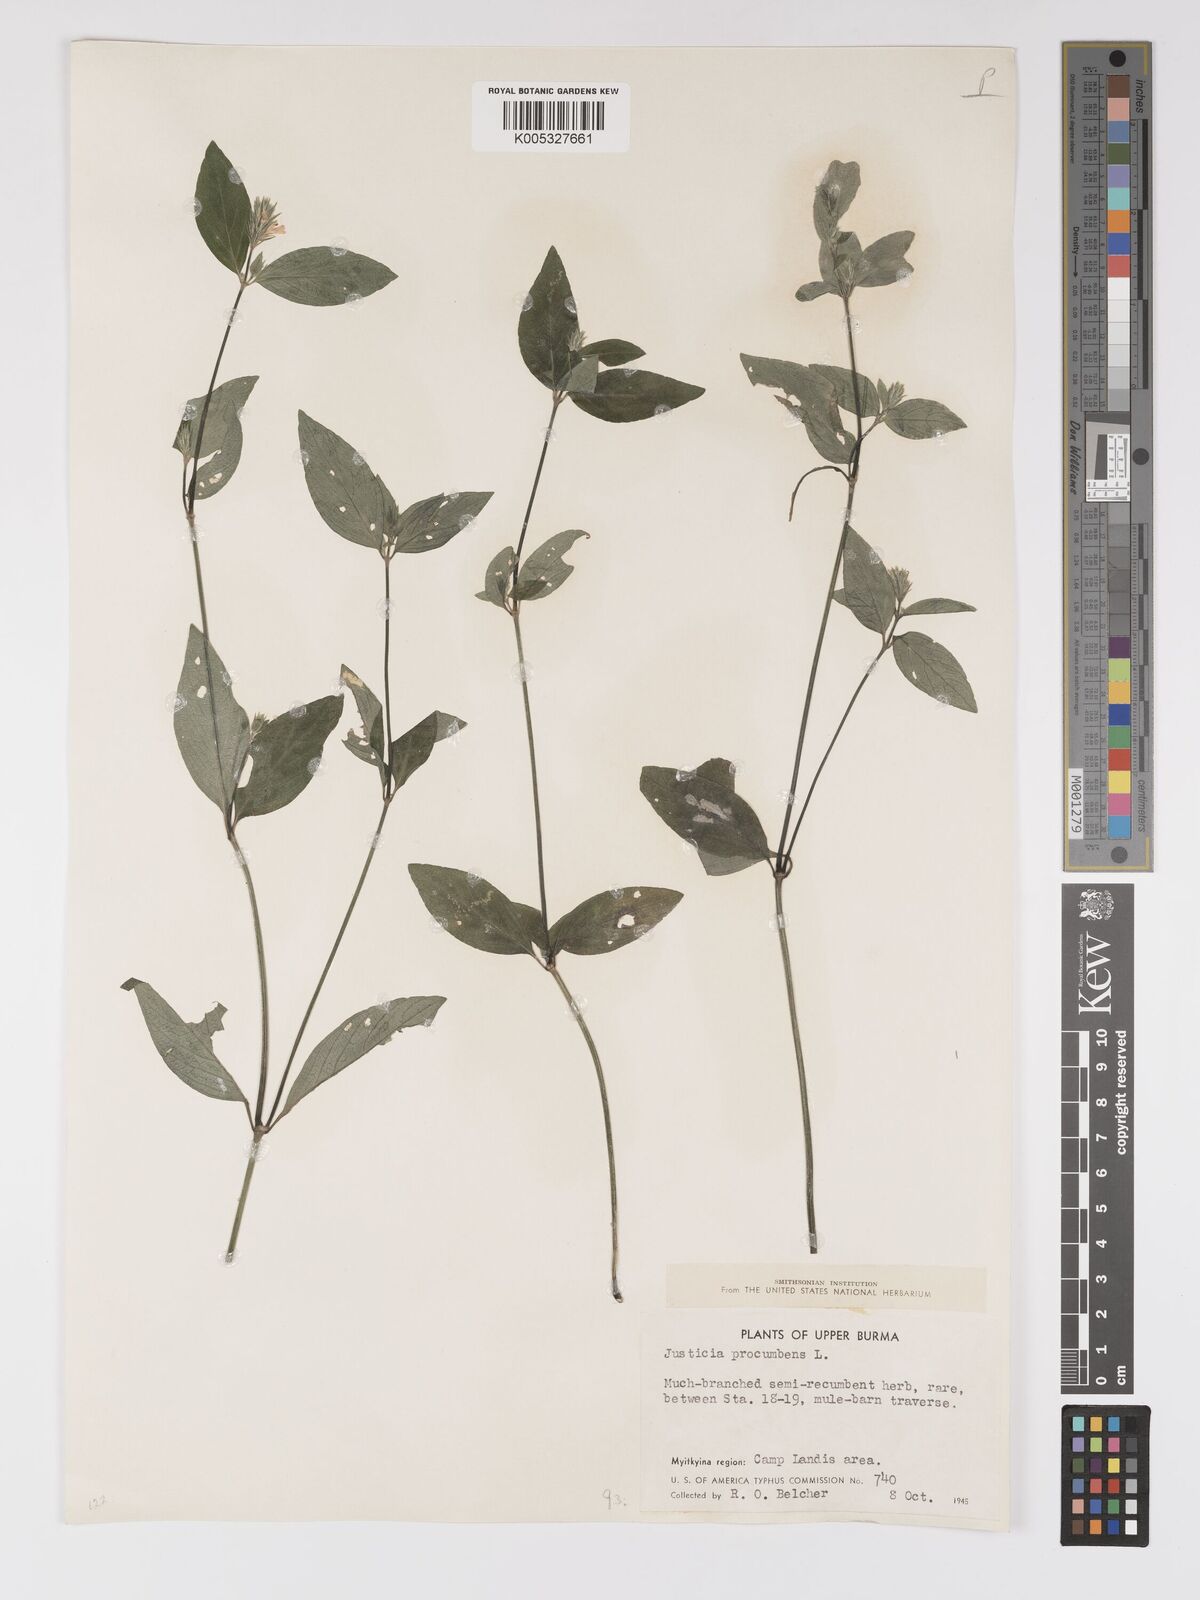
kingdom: Plantae
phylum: Tracheophyta
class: Magnoliopsida
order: Lamiales
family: Acanthaceae
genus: Rostellularia
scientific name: Rostellularia latispica
